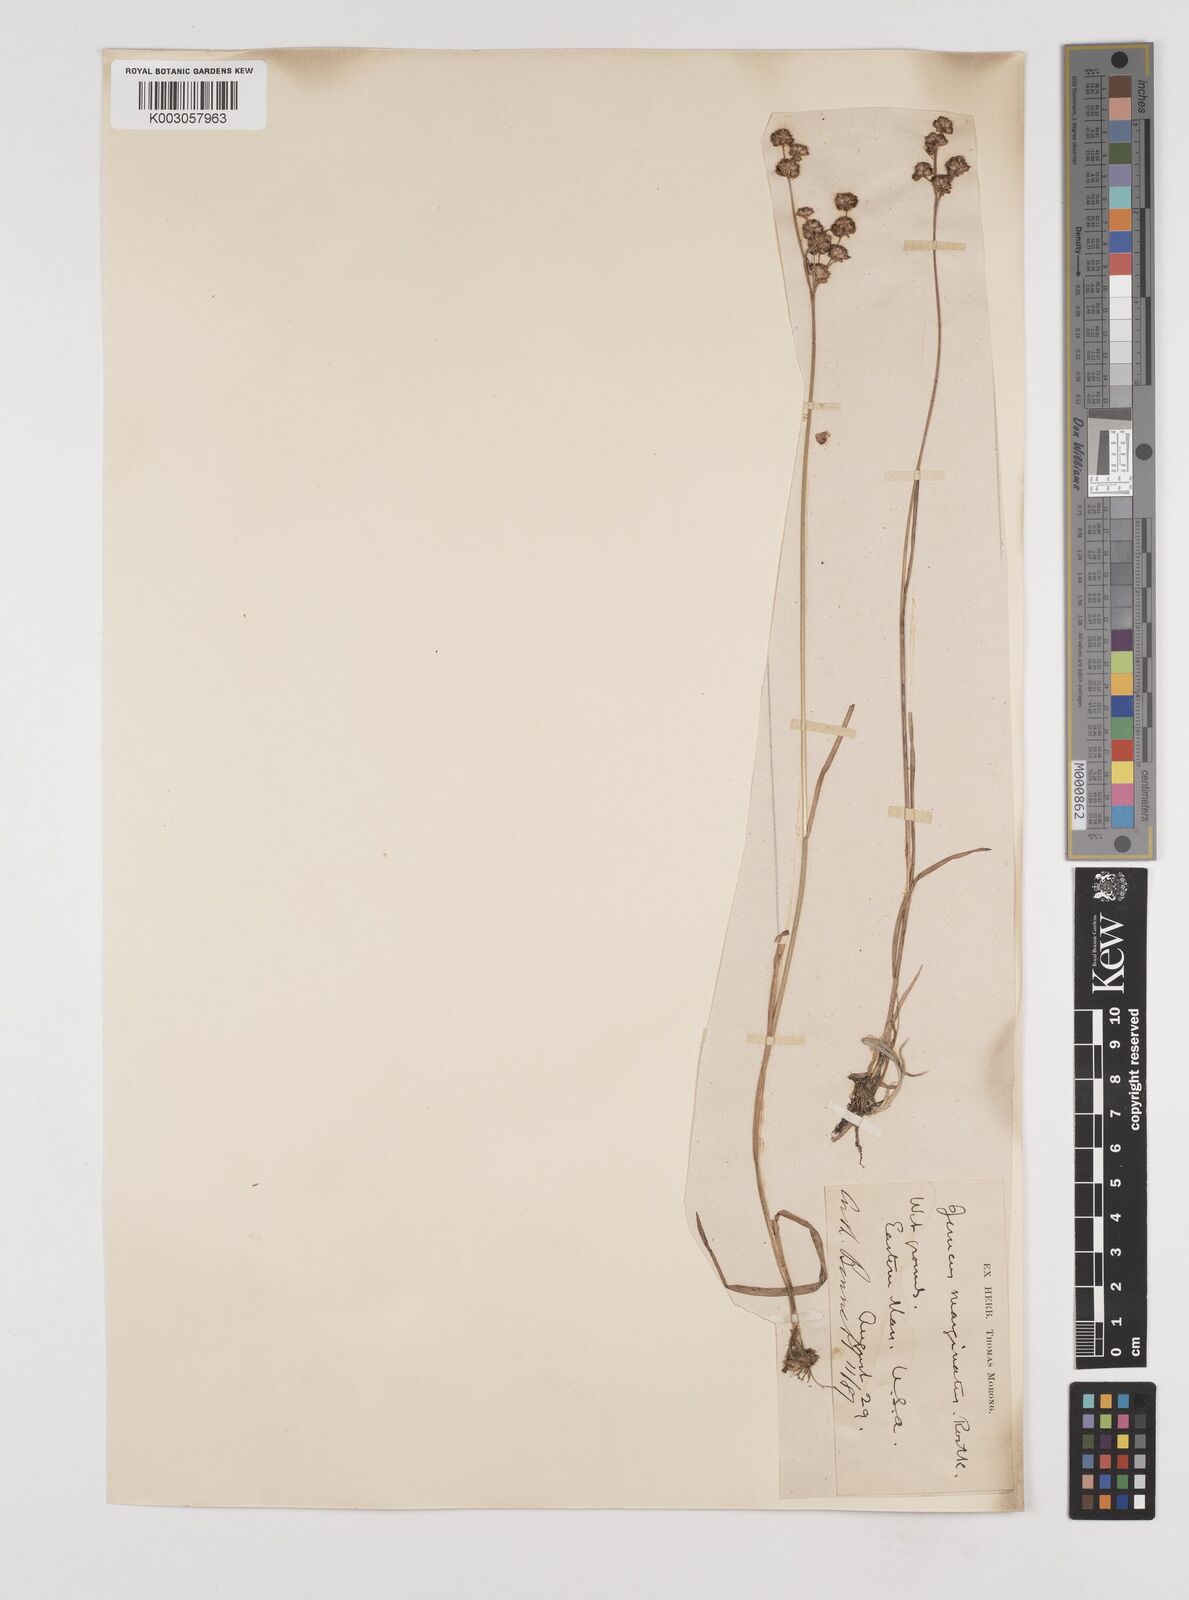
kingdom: Plantae
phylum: Tracheophyta
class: Liliopsida
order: Poales
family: Juncaceae
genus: Juncus
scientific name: Juncus marginatus
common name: Grass-leaf rush
